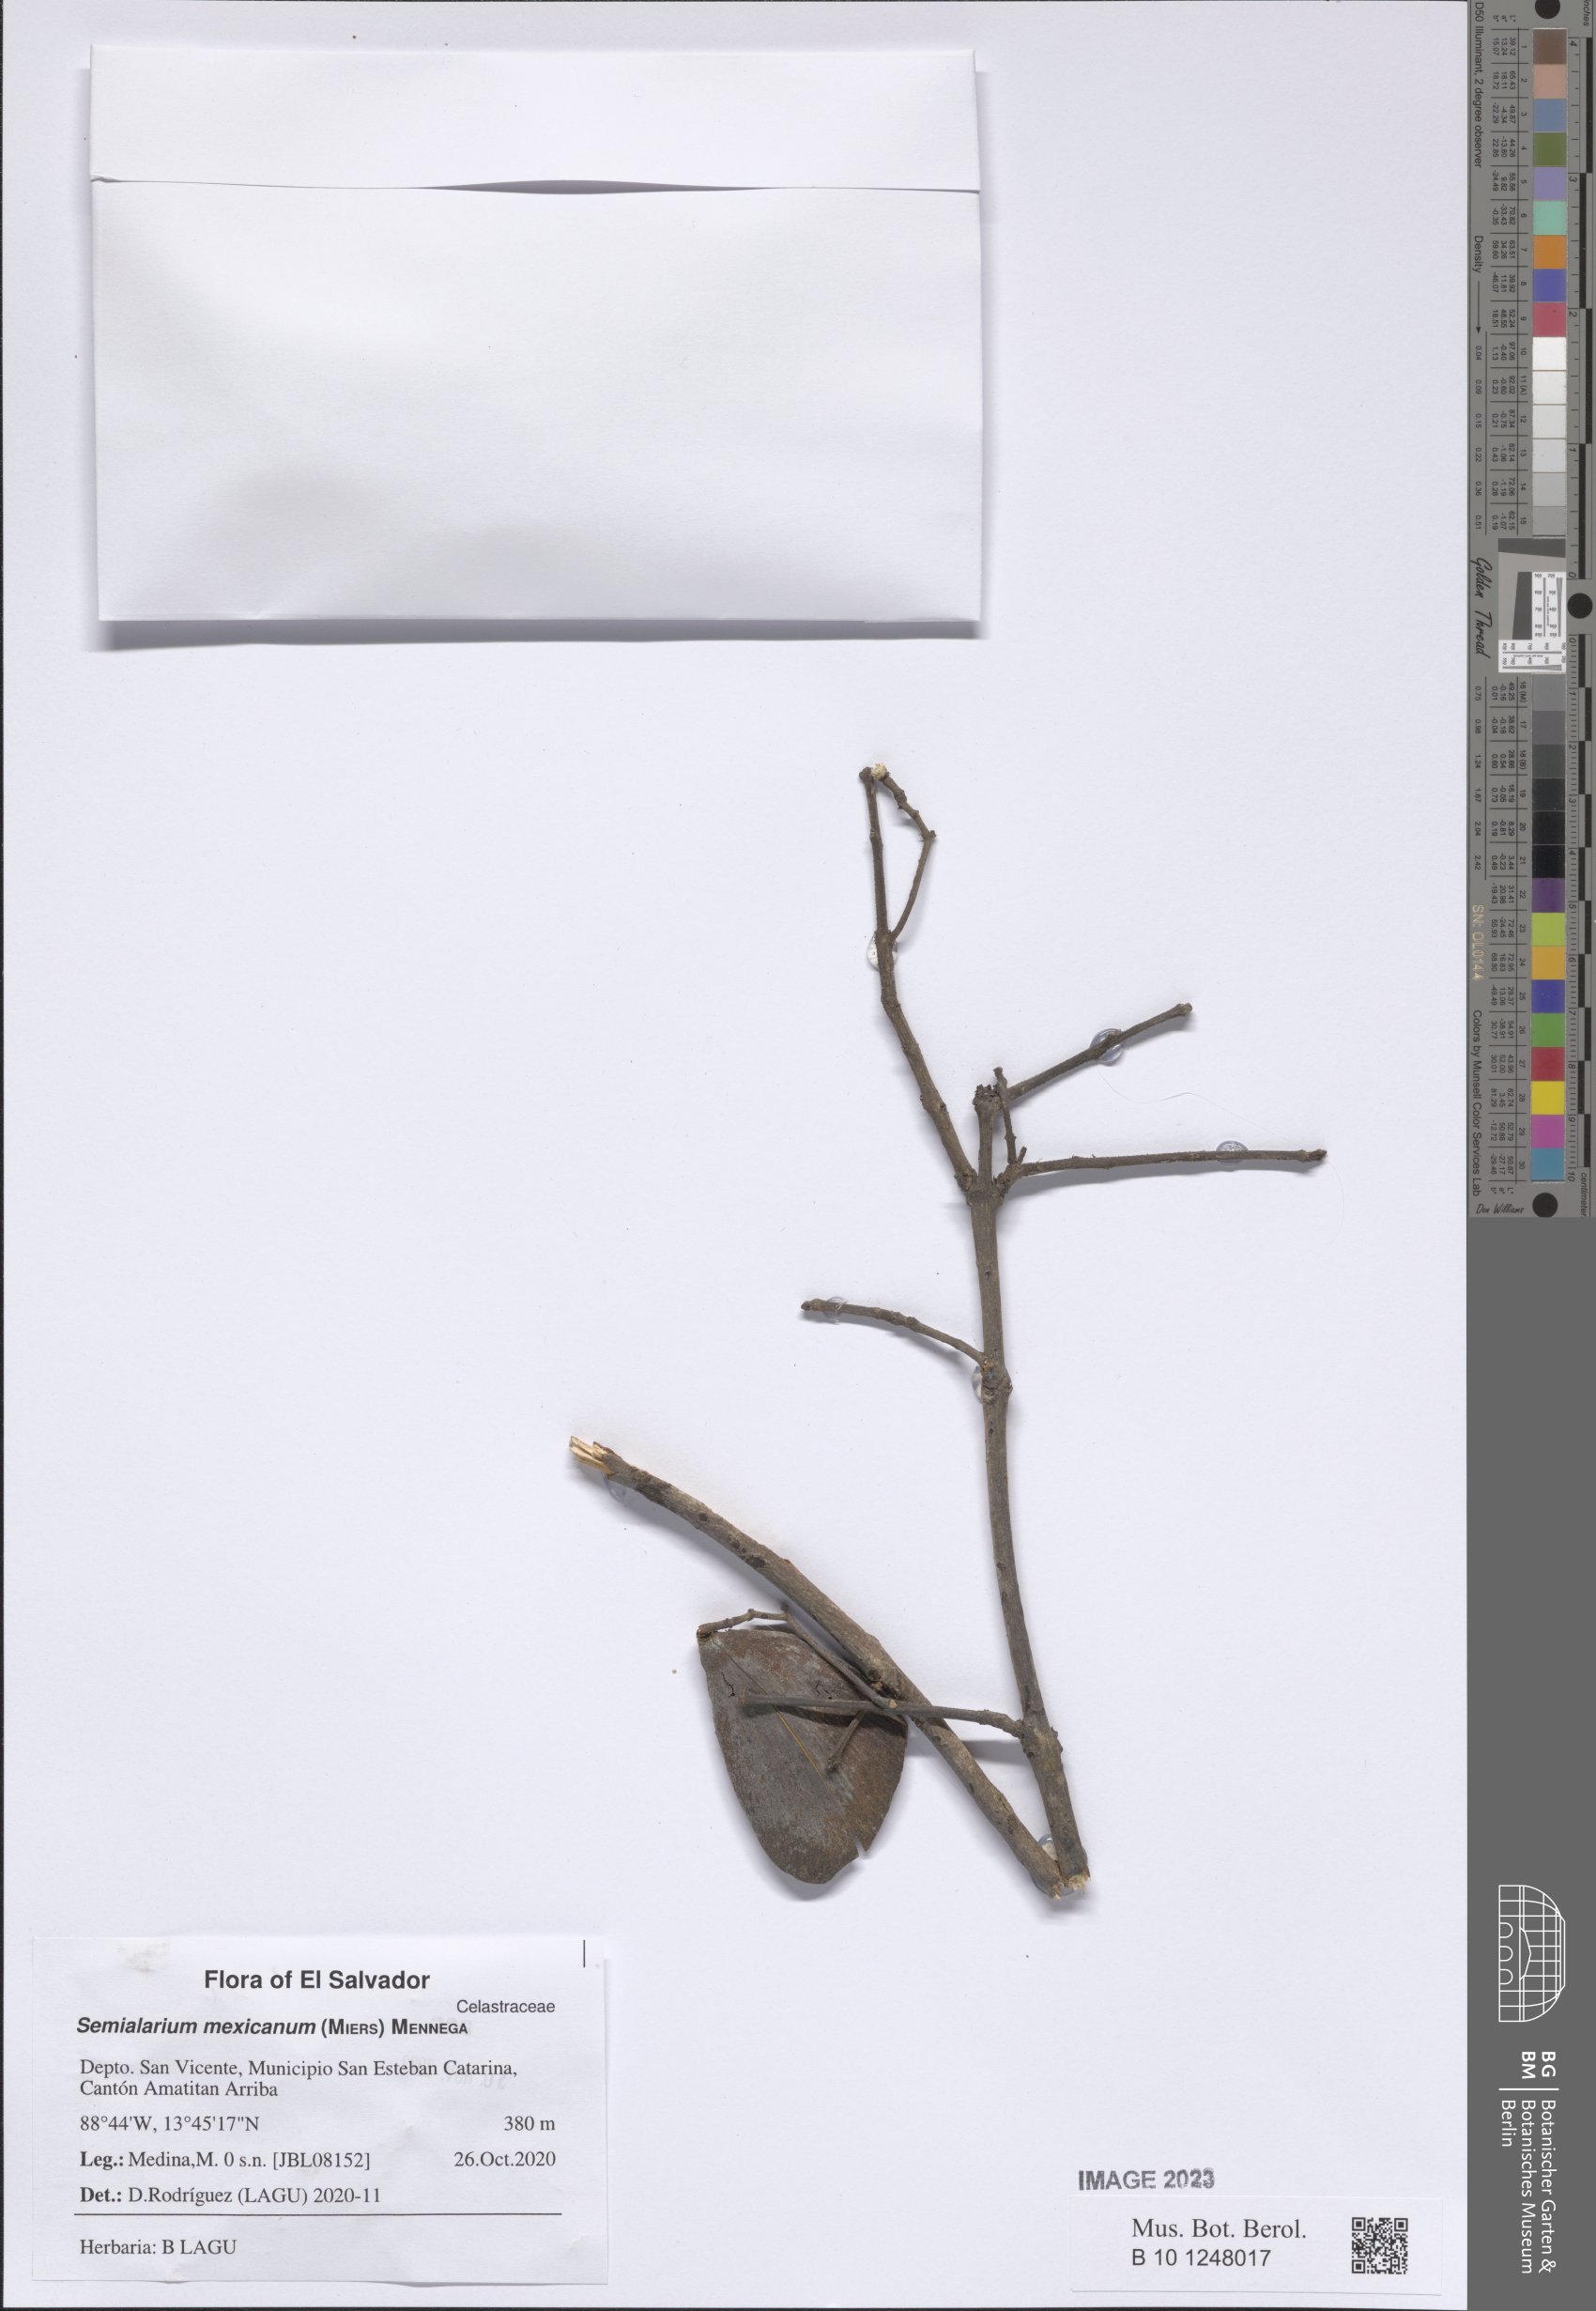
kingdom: Plantae
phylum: Tracheophyta
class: Magnoliopsida
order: Celastrales
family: Celastraceae
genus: Semialarium
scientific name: Semialarium mexicanum
